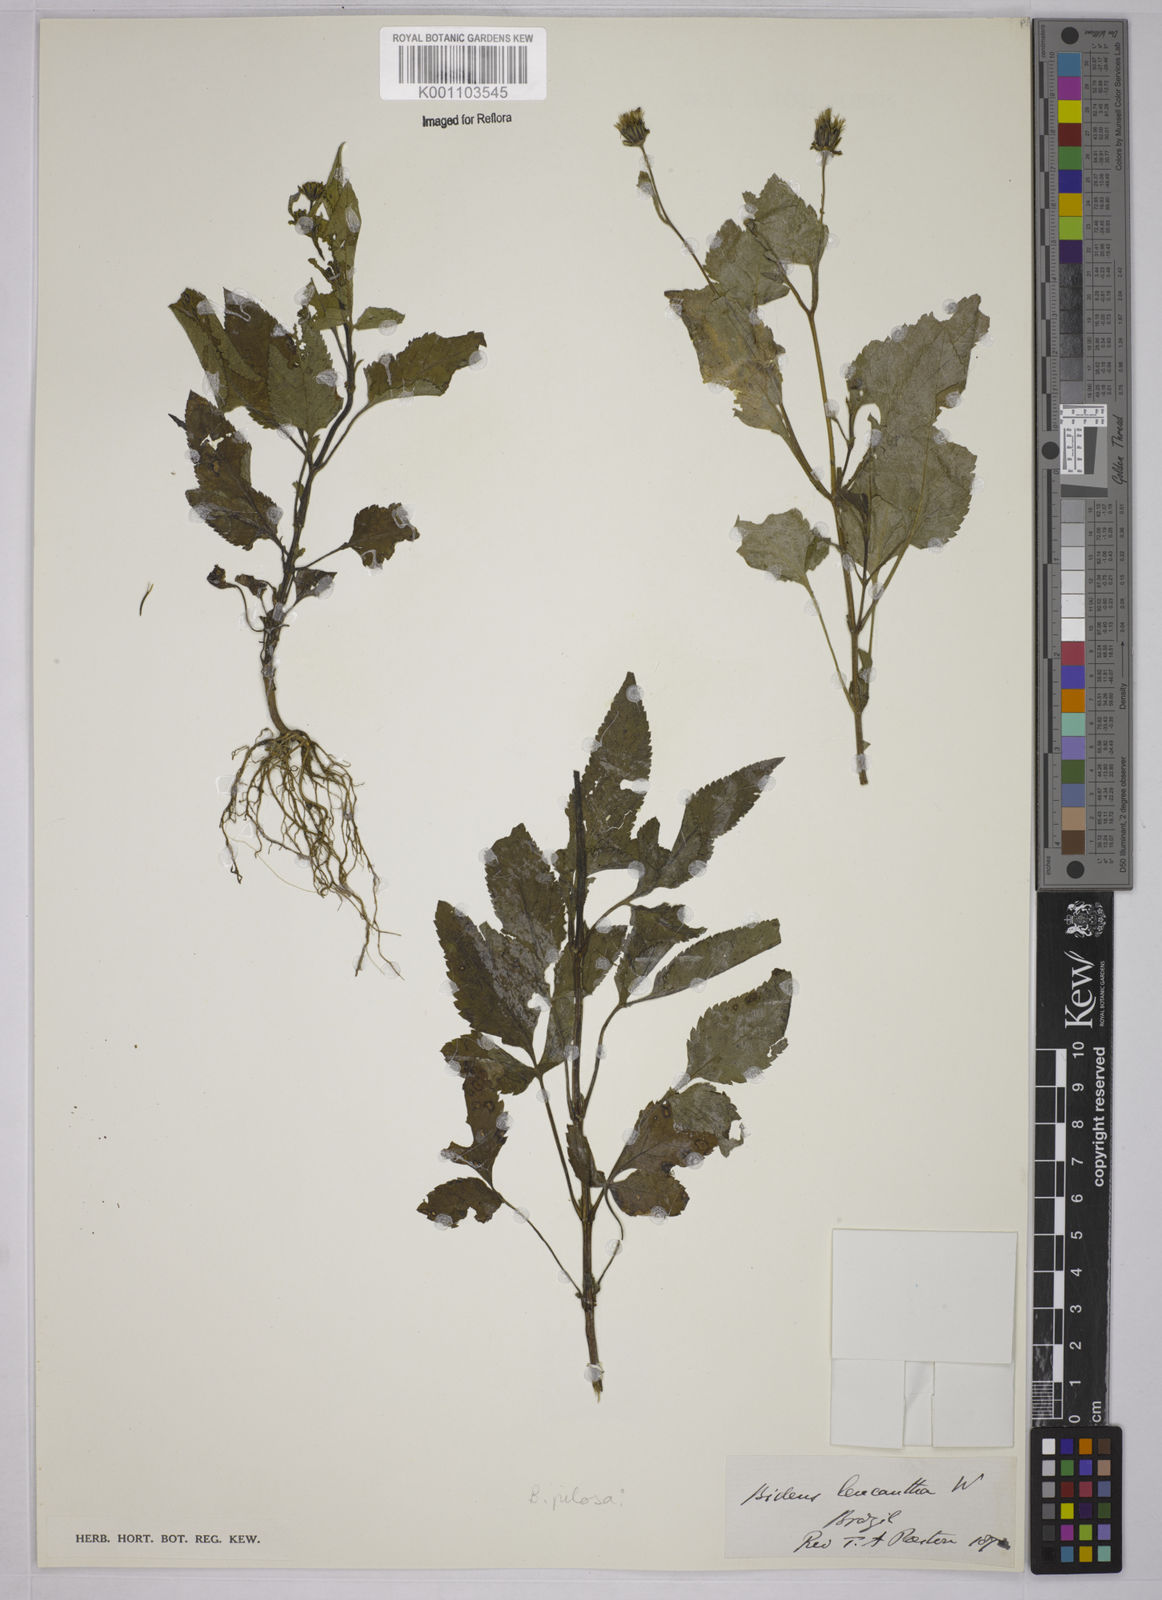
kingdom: Plantae
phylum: Tracheophyta
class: Magnoliopsida
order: Asterales
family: Asteraceae
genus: Bidens
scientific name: Bidens pilosa
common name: Black-jack
